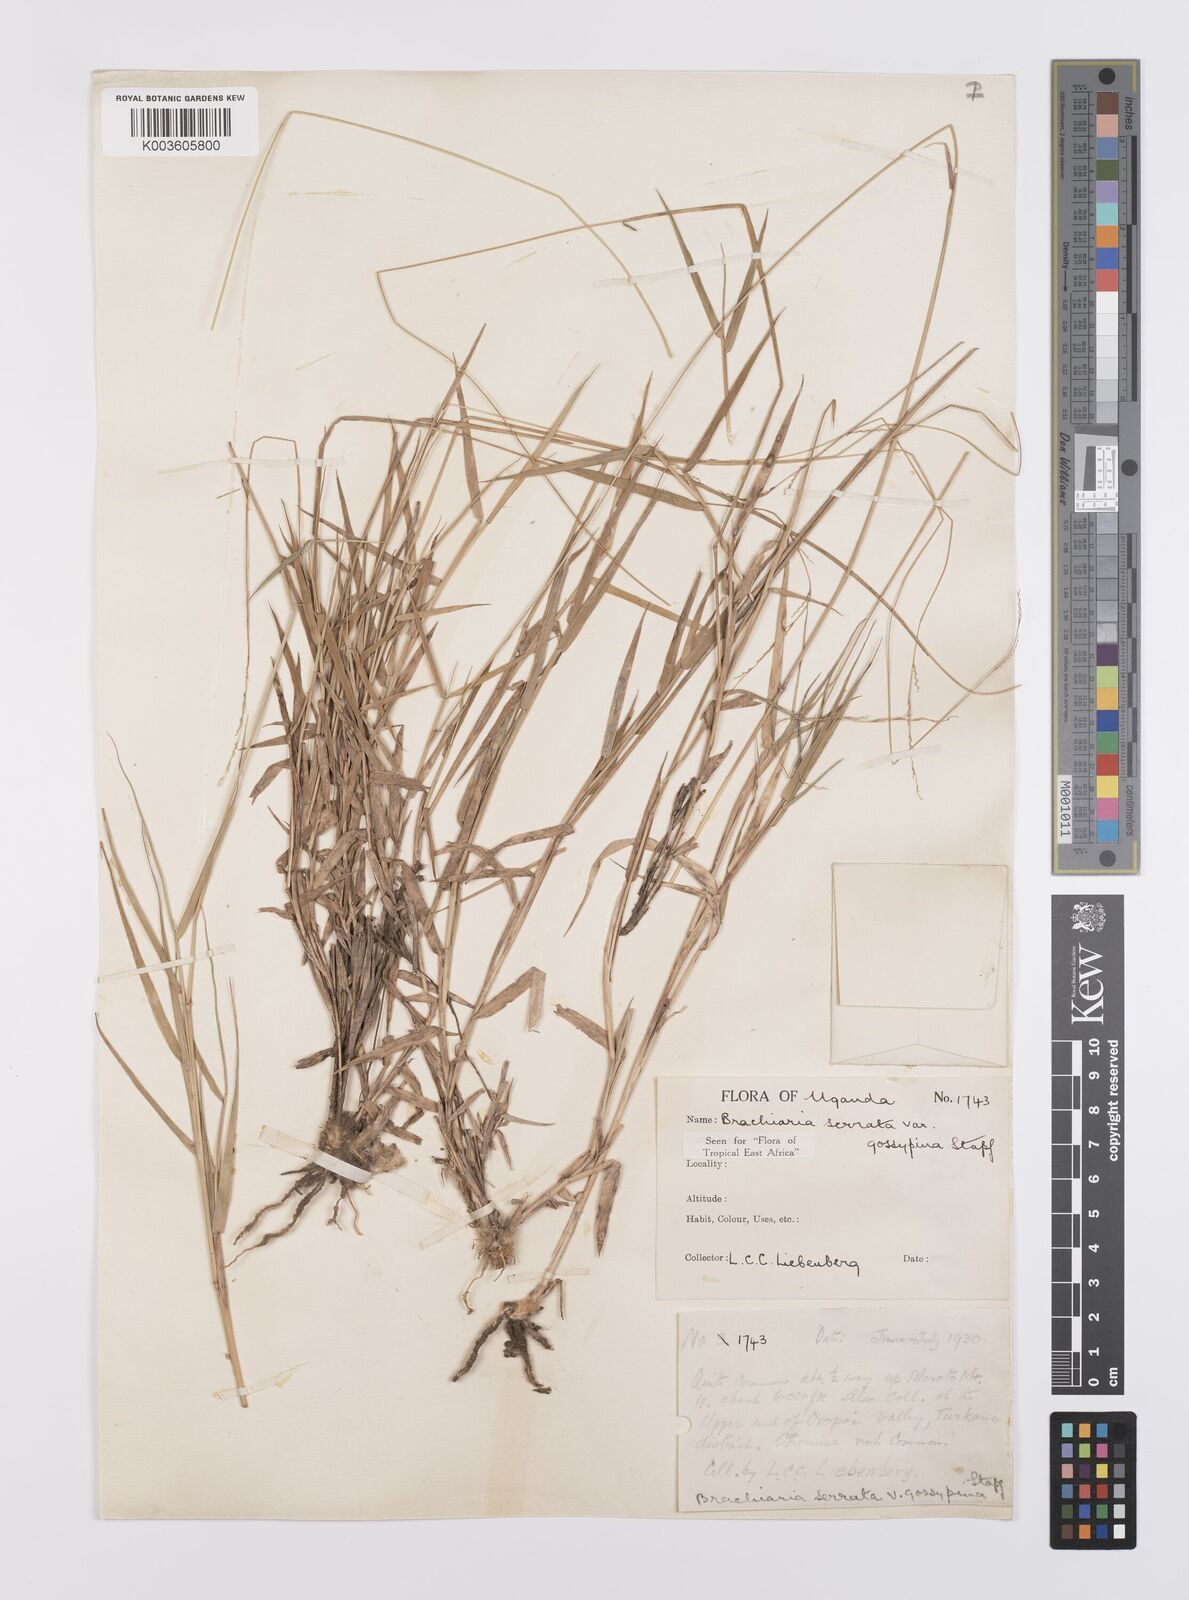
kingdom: Plantae
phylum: Tracheophyta
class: Liliopsida
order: Poales
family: Poaceae
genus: Urochloa
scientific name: Urochloa serrata
